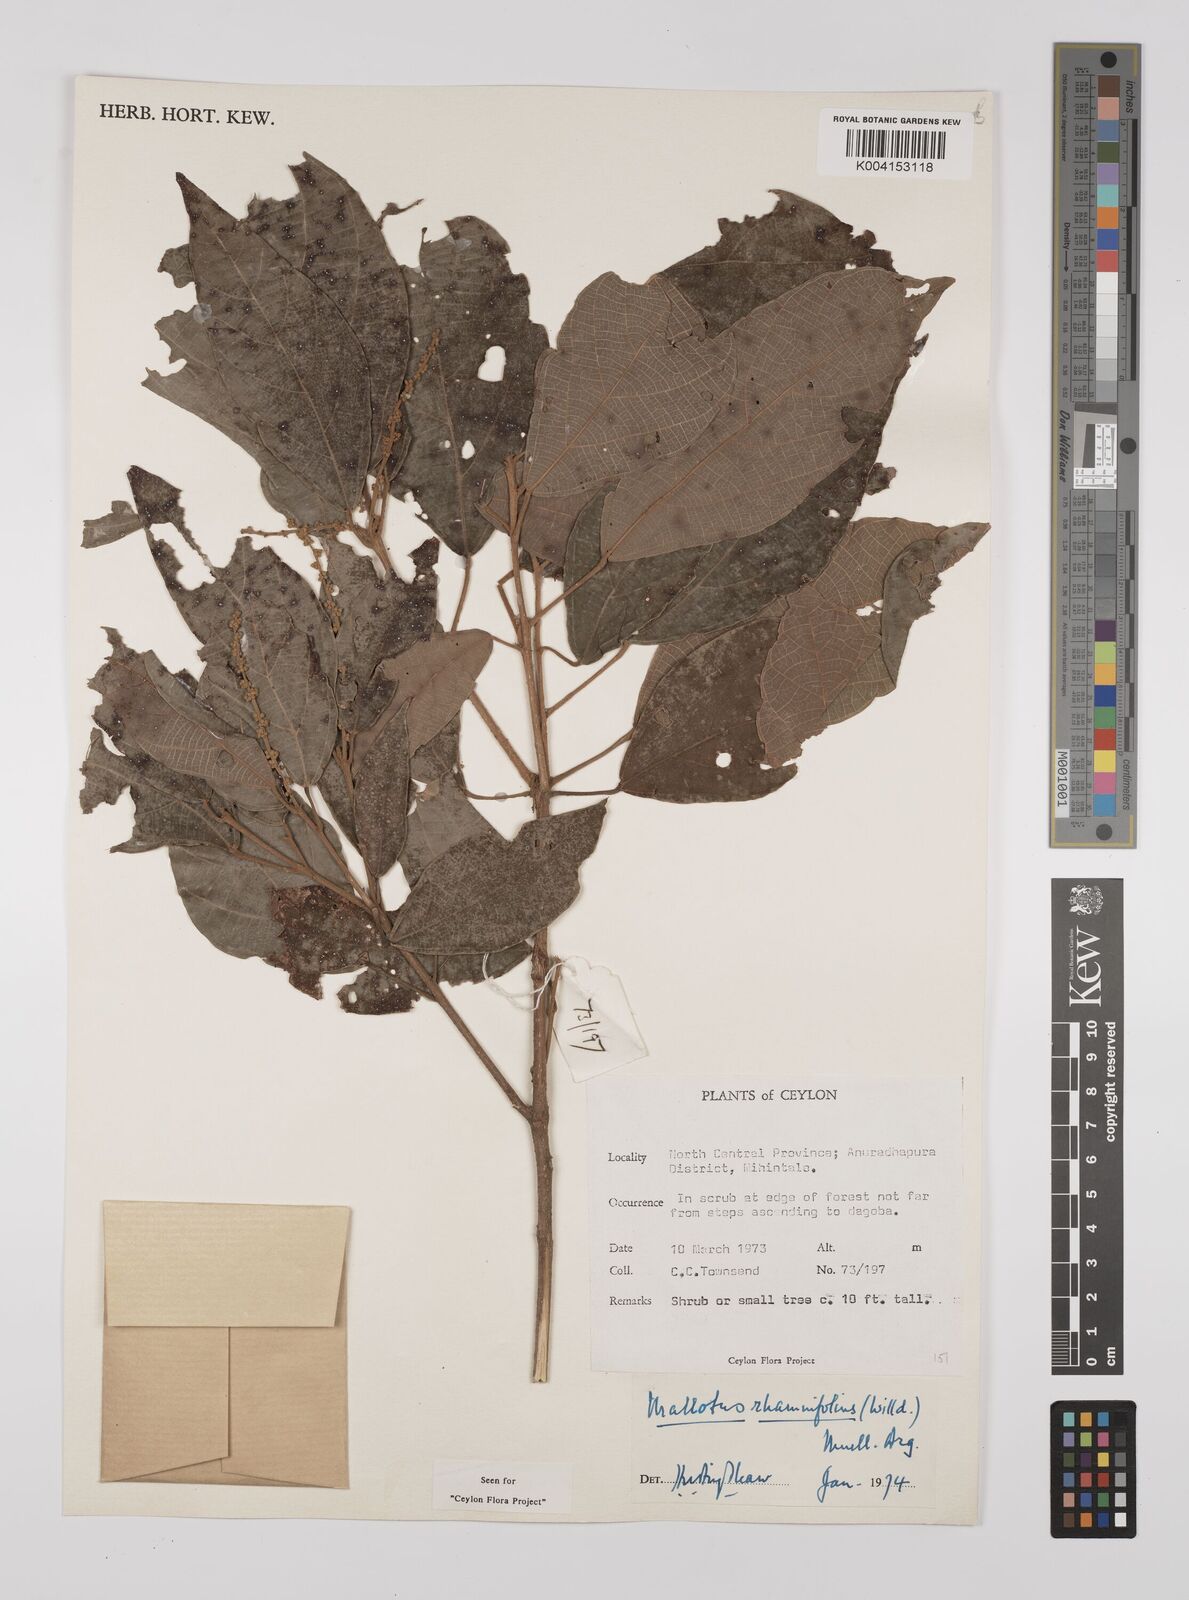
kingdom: Plantae
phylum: Tracheophyta
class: Magnoliopsida
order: Malpighiales
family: Euphorbiaceae
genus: Mallotus
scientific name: Mallotus rhamnifolius
